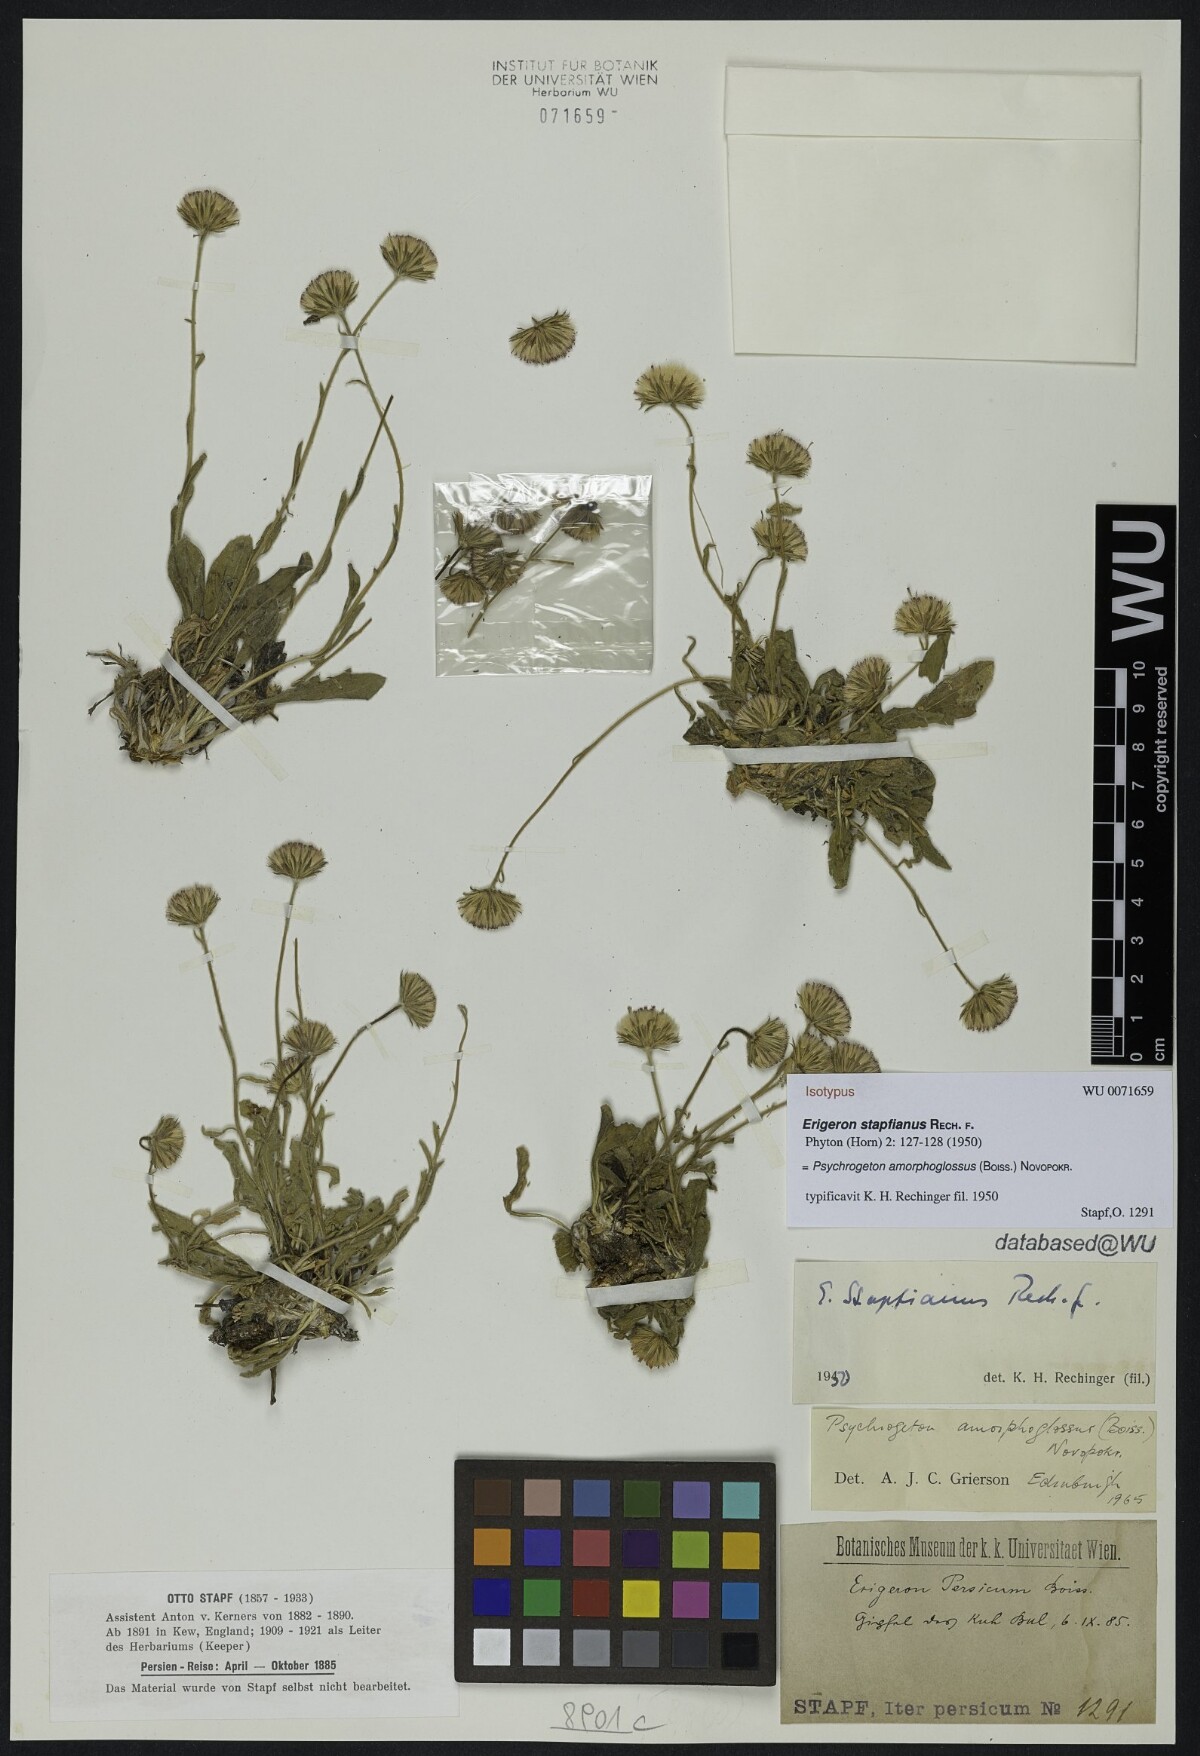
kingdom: Plantae
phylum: Tracheophyta
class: Magnoliopsida
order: Asterales
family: Asteraceae
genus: Psychrogeton
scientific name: Psychrogeton amorphoglossus
